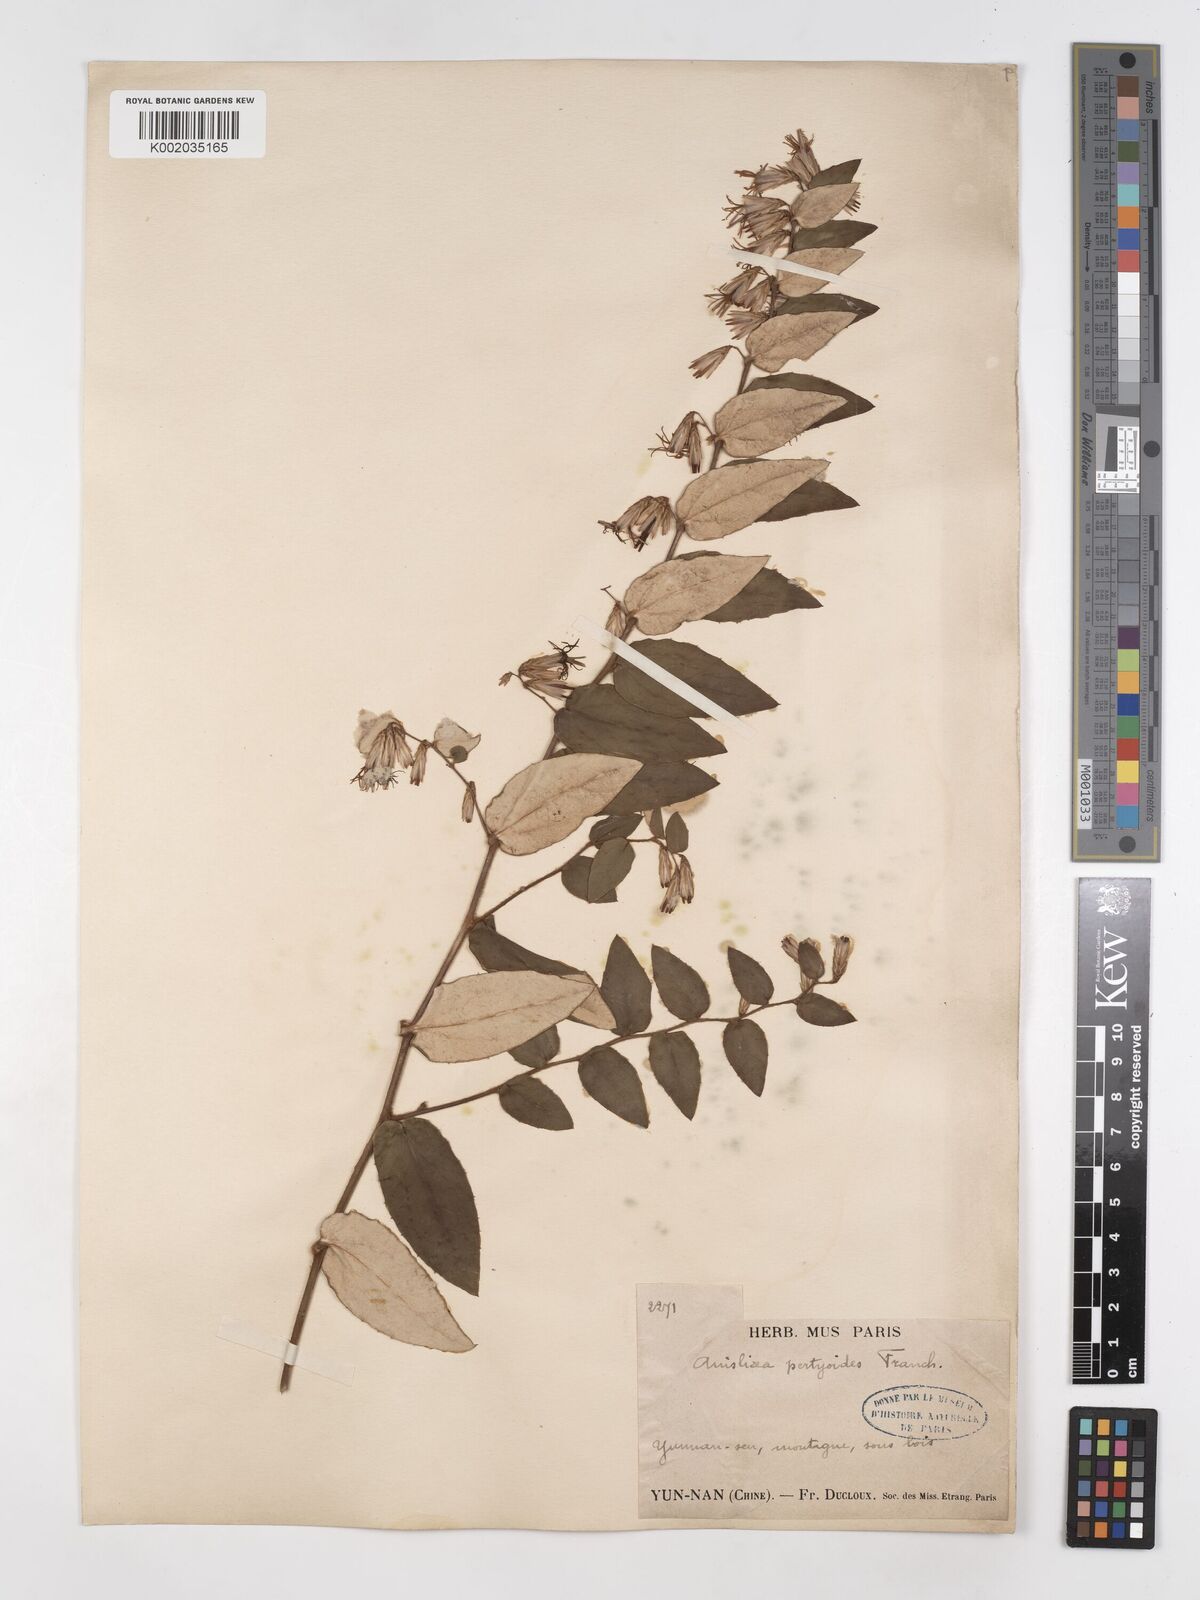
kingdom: Plantae
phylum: Tracheophyta
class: Magnoliopsida
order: Asterales
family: Asteraceae
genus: Ainsliaea
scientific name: Ainsliaea pertyoides
